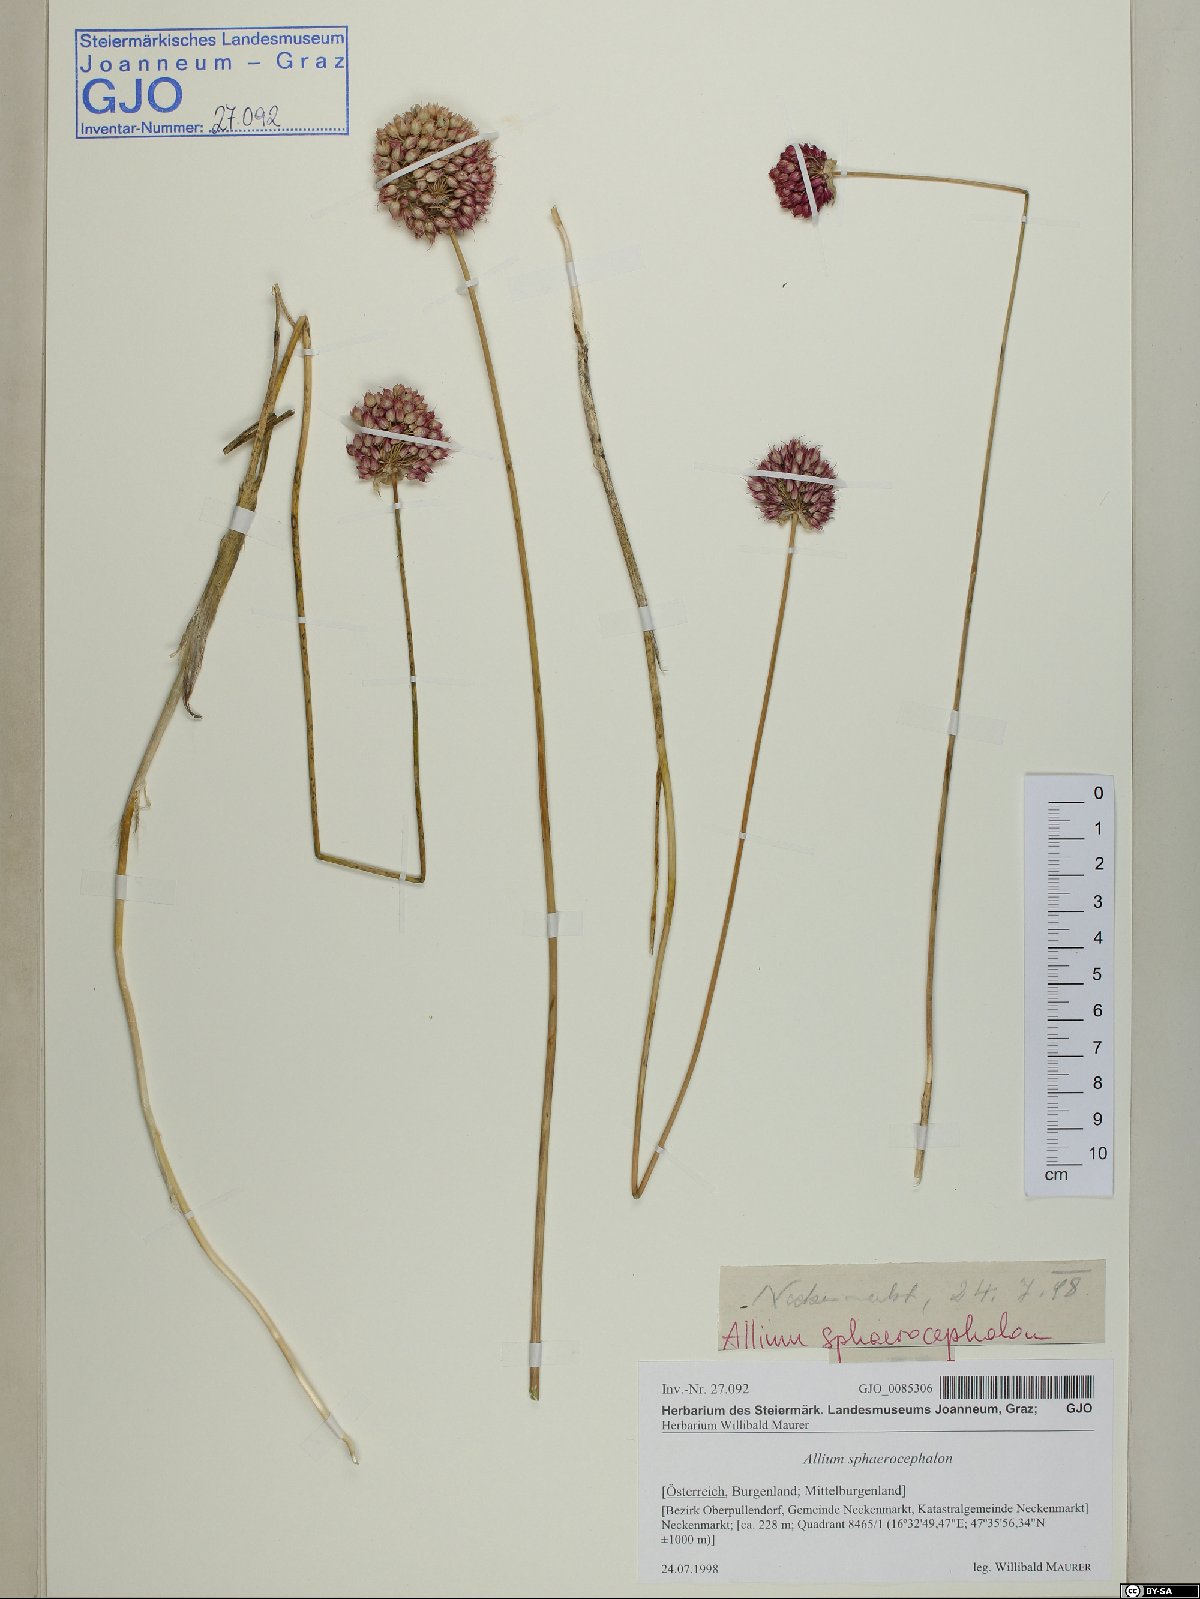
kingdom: Plantae
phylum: Tracheophyta
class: Liliopsida
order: Asparagales
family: Amaryllidaceae
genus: Allium
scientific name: Allium sphaerocephalon
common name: Round-headed leek
